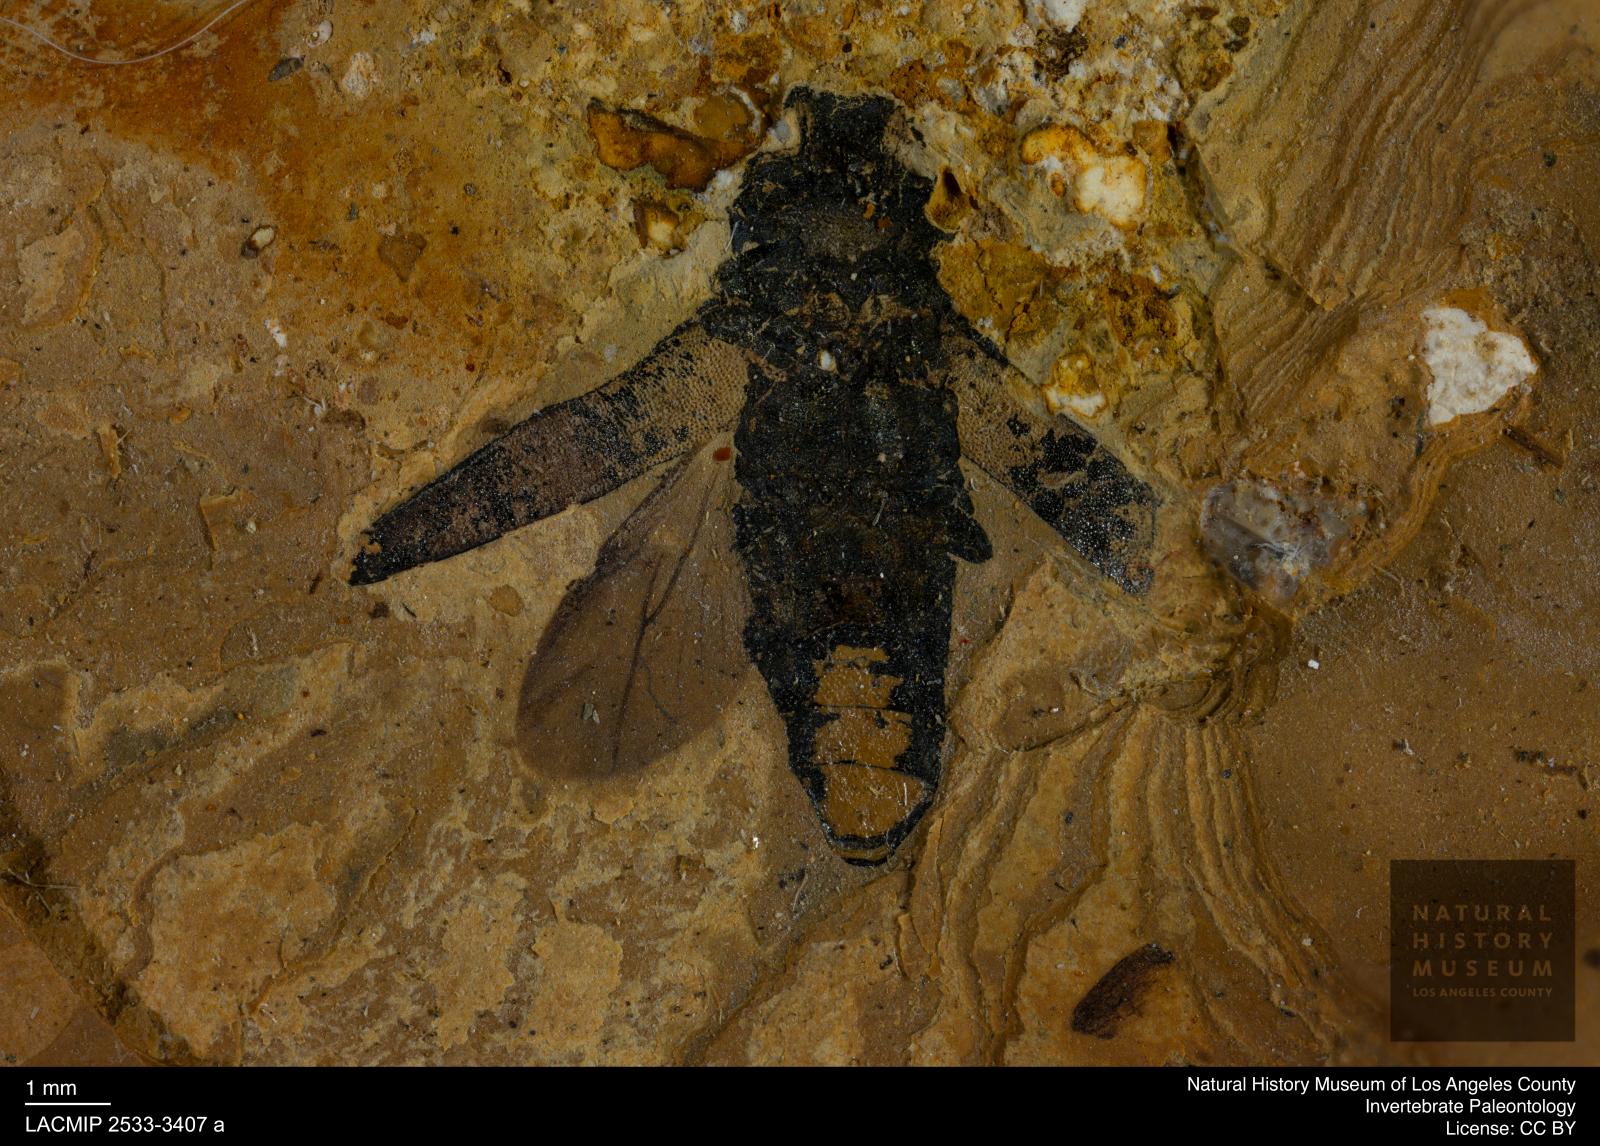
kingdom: Animalia
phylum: Arthropoda
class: Insecta
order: Coleoptera
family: Buprestidae
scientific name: Buprestidae
